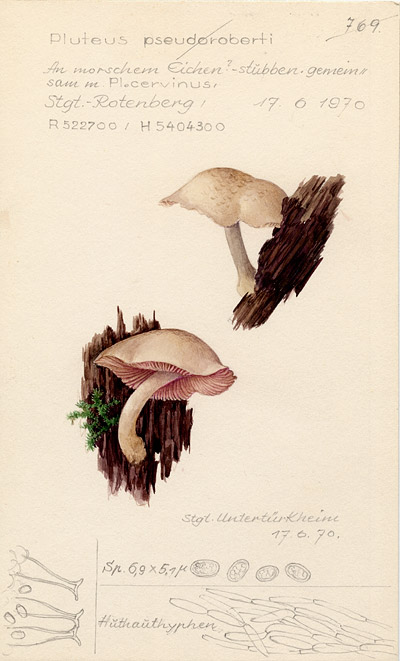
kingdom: Fungi
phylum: Basidiomycota
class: Agaricomycetes
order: Agaricales
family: Pluteaceae
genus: Pluteus
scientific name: Pluteus robertii
